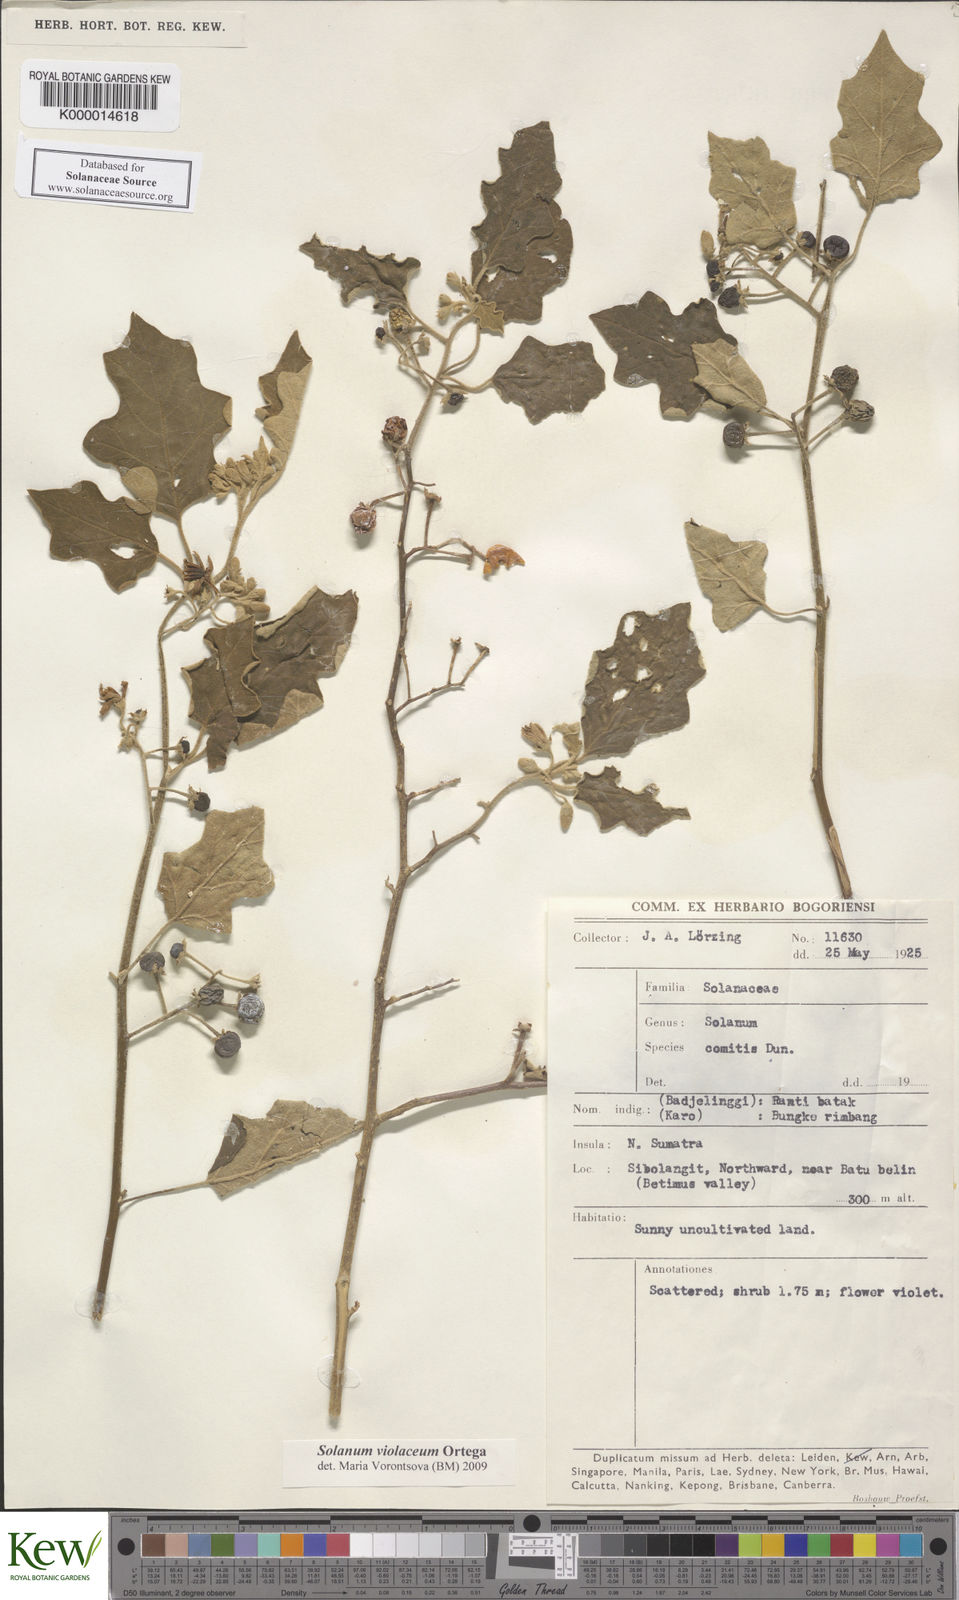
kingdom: Plantae
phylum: Tracheophyta
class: Magnoliopsida
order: Solanales
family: Solanaceae
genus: Solanum
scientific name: Solanum violaceum
